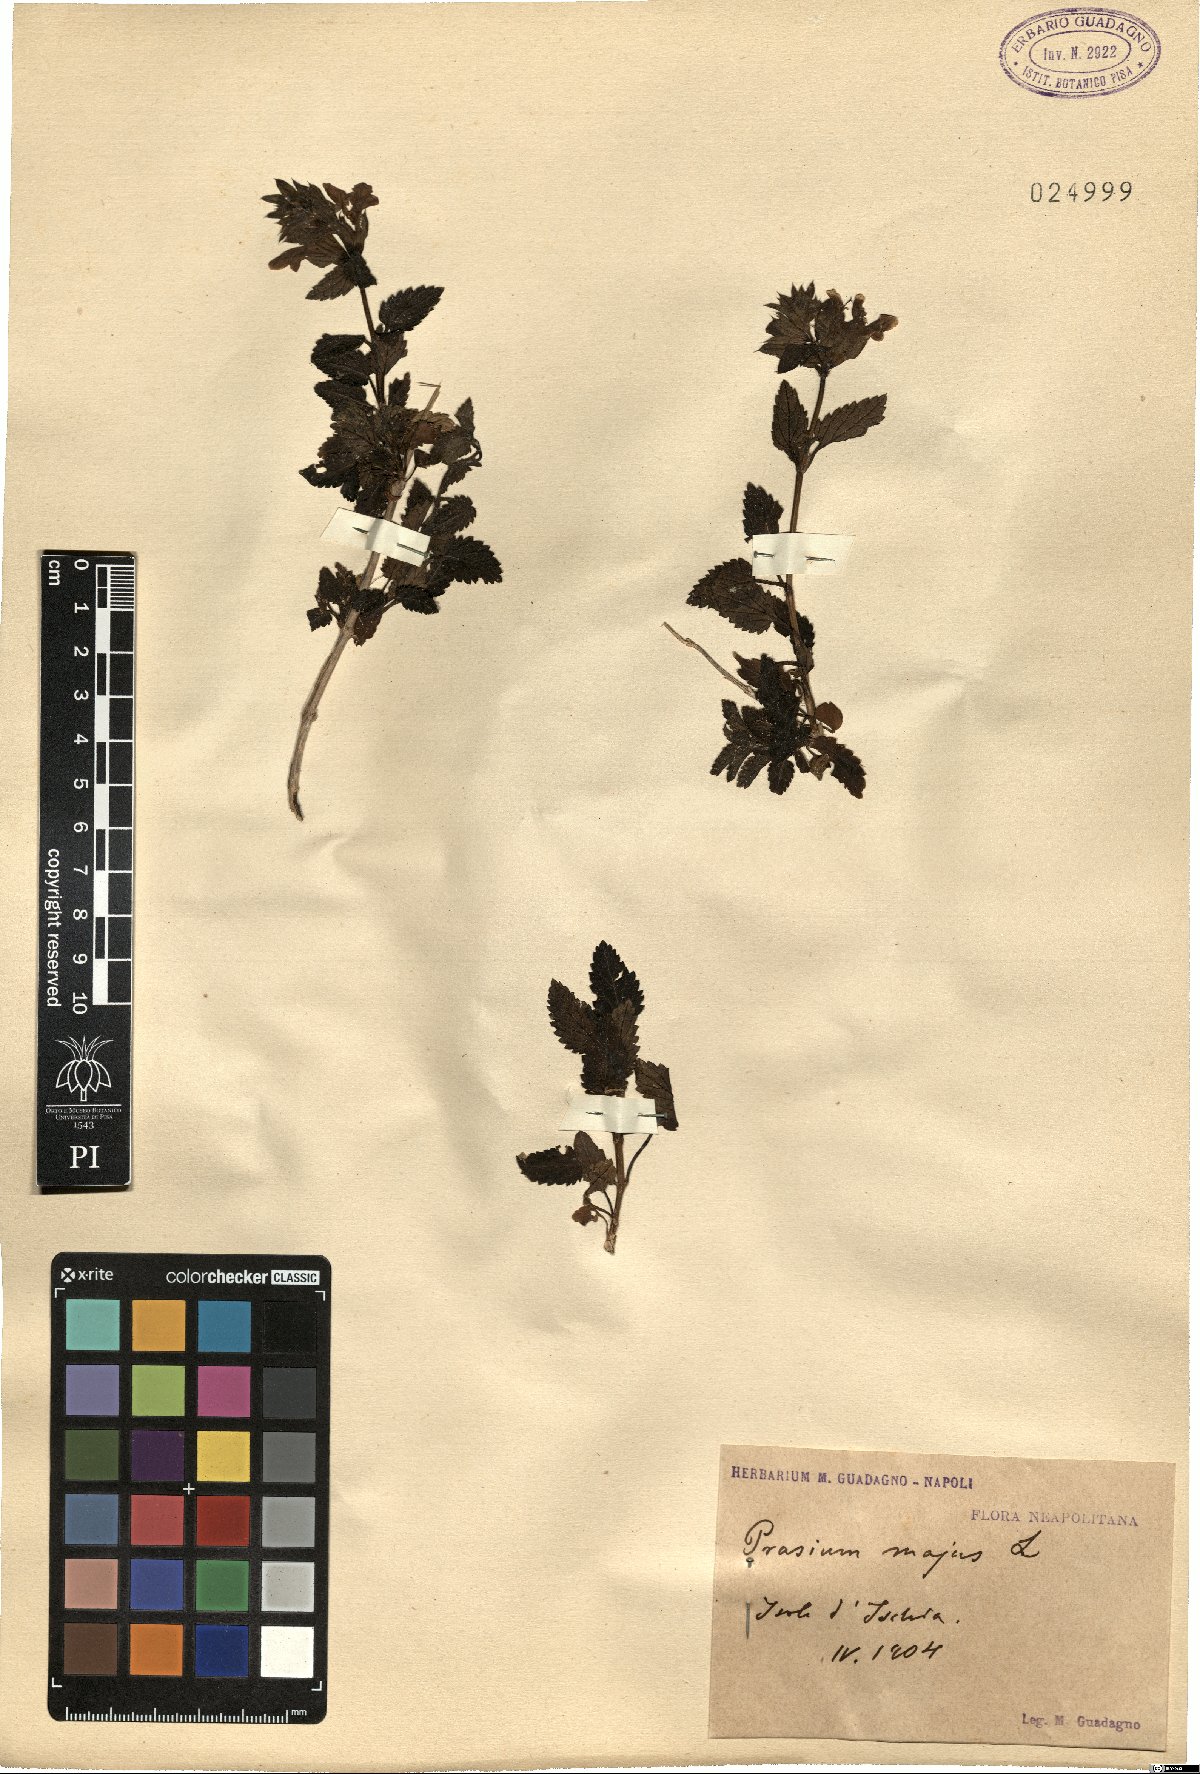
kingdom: Plantae
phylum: Tracheophyta
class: Magnoliopsida
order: Lamiales
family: Lamiaceae
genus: Prasium
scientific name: Prasium majus
